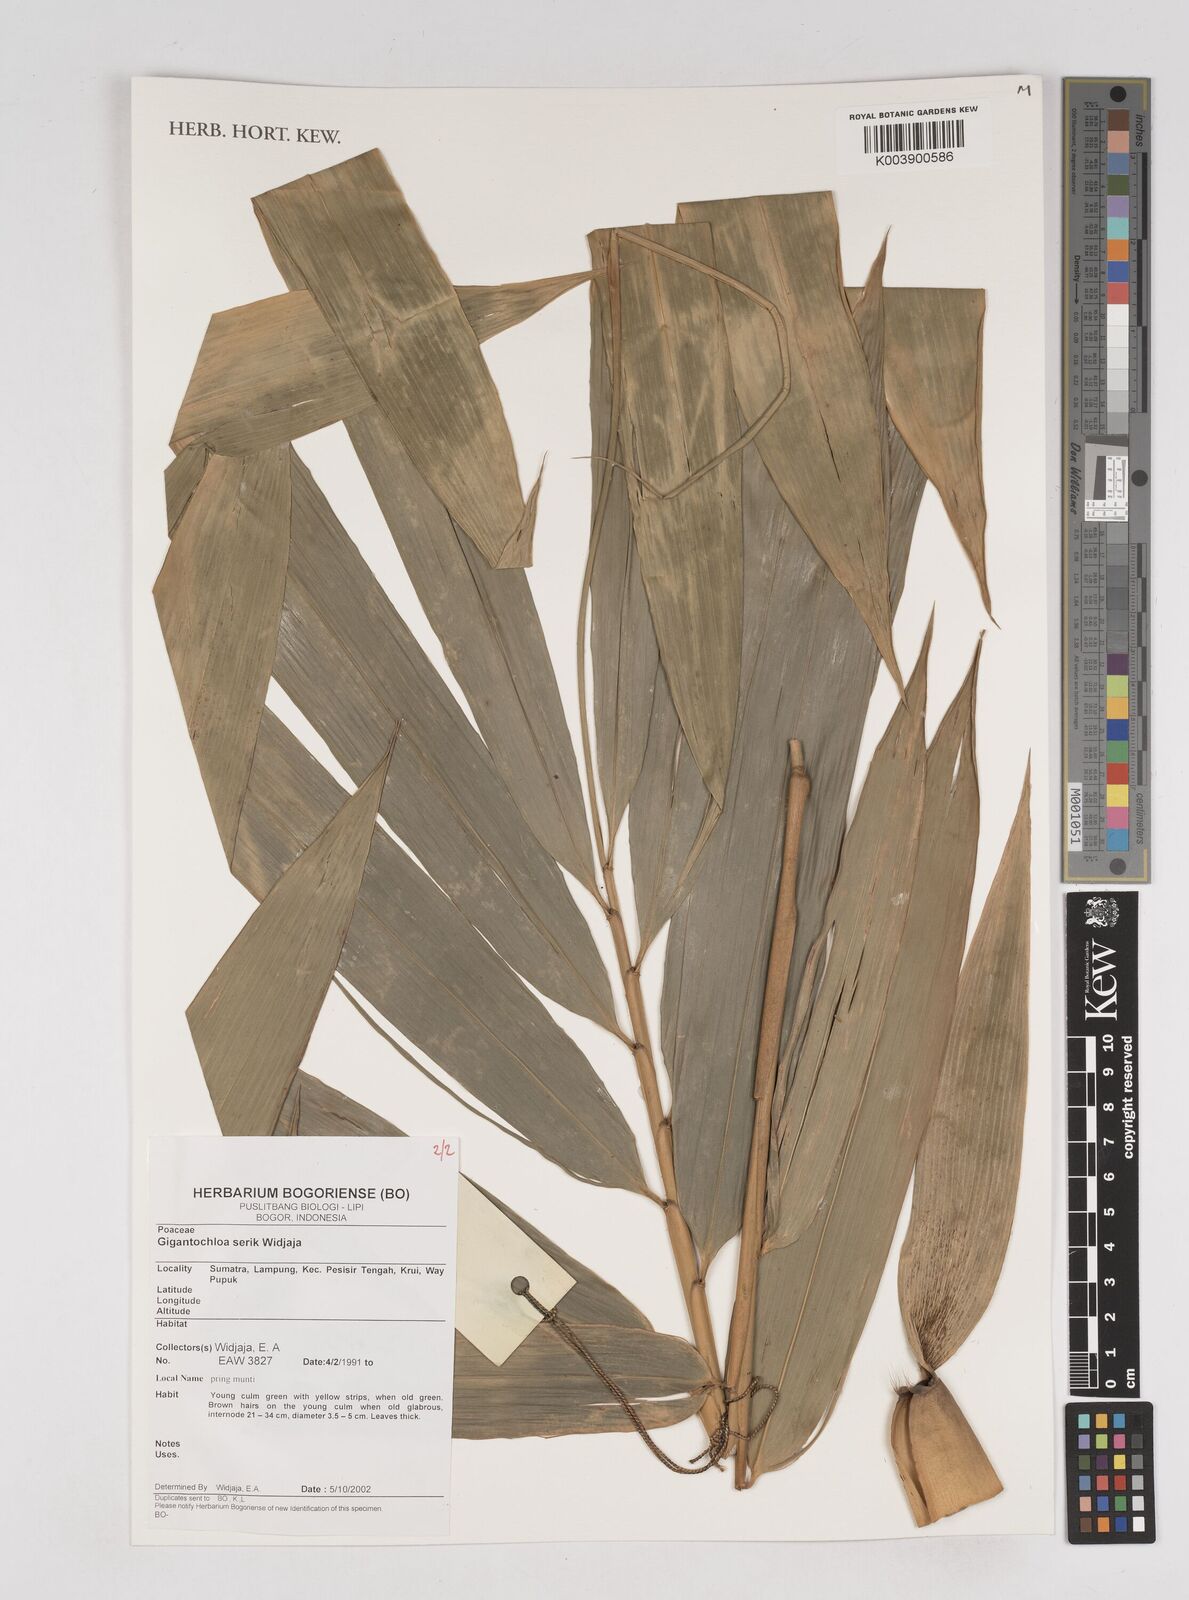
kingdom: Plantae
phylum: Tracheophyta
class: Liliopsida
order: Poales
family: Poaceae
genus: Gigantochloa
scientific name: Gigantochloa serik
